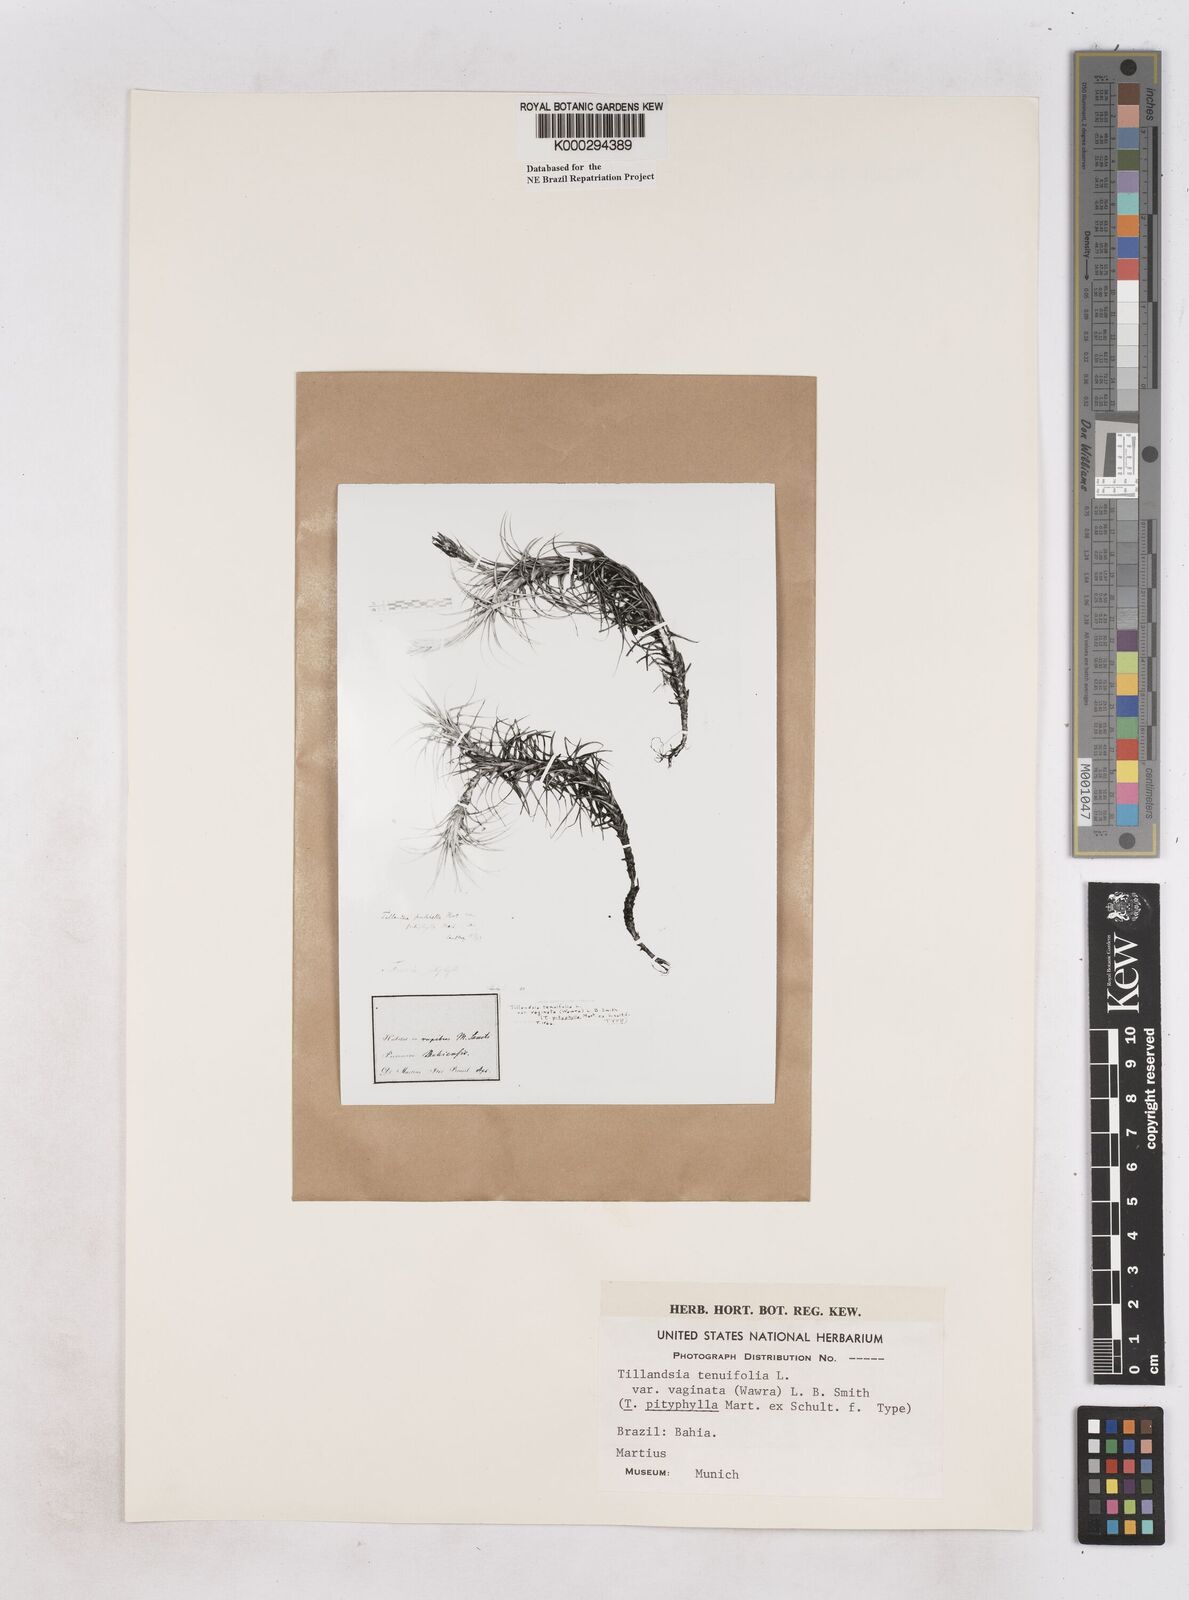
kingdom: Plantae
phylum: Tracheophyta
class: Liliopsida
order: Poales
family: Bromeliaceae
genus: Tillandsia
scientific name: Tillandsia tenuifolia
